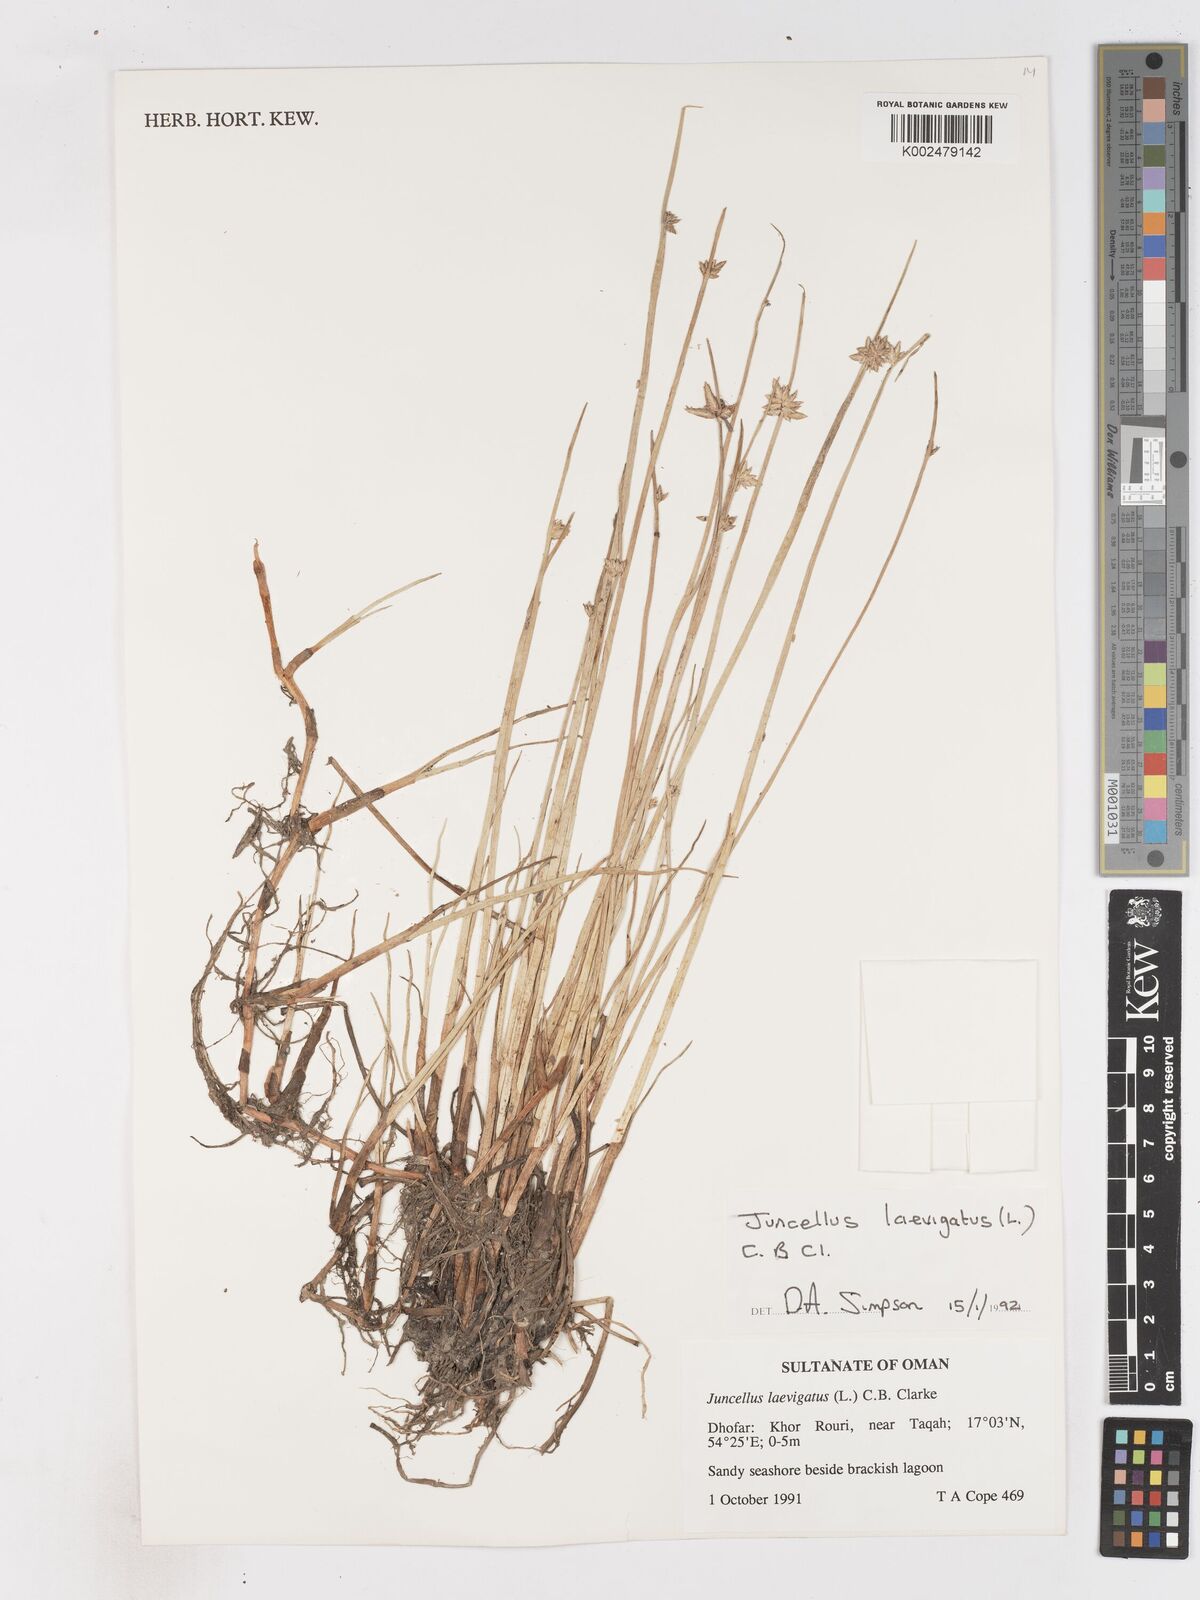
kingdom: Plantae
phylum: Tracheophyta
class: Liliopsida
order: Poales
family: Cyperaceae
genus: Cyperus
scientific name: Cyperus laevigatus
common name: Smooth flat sedge
